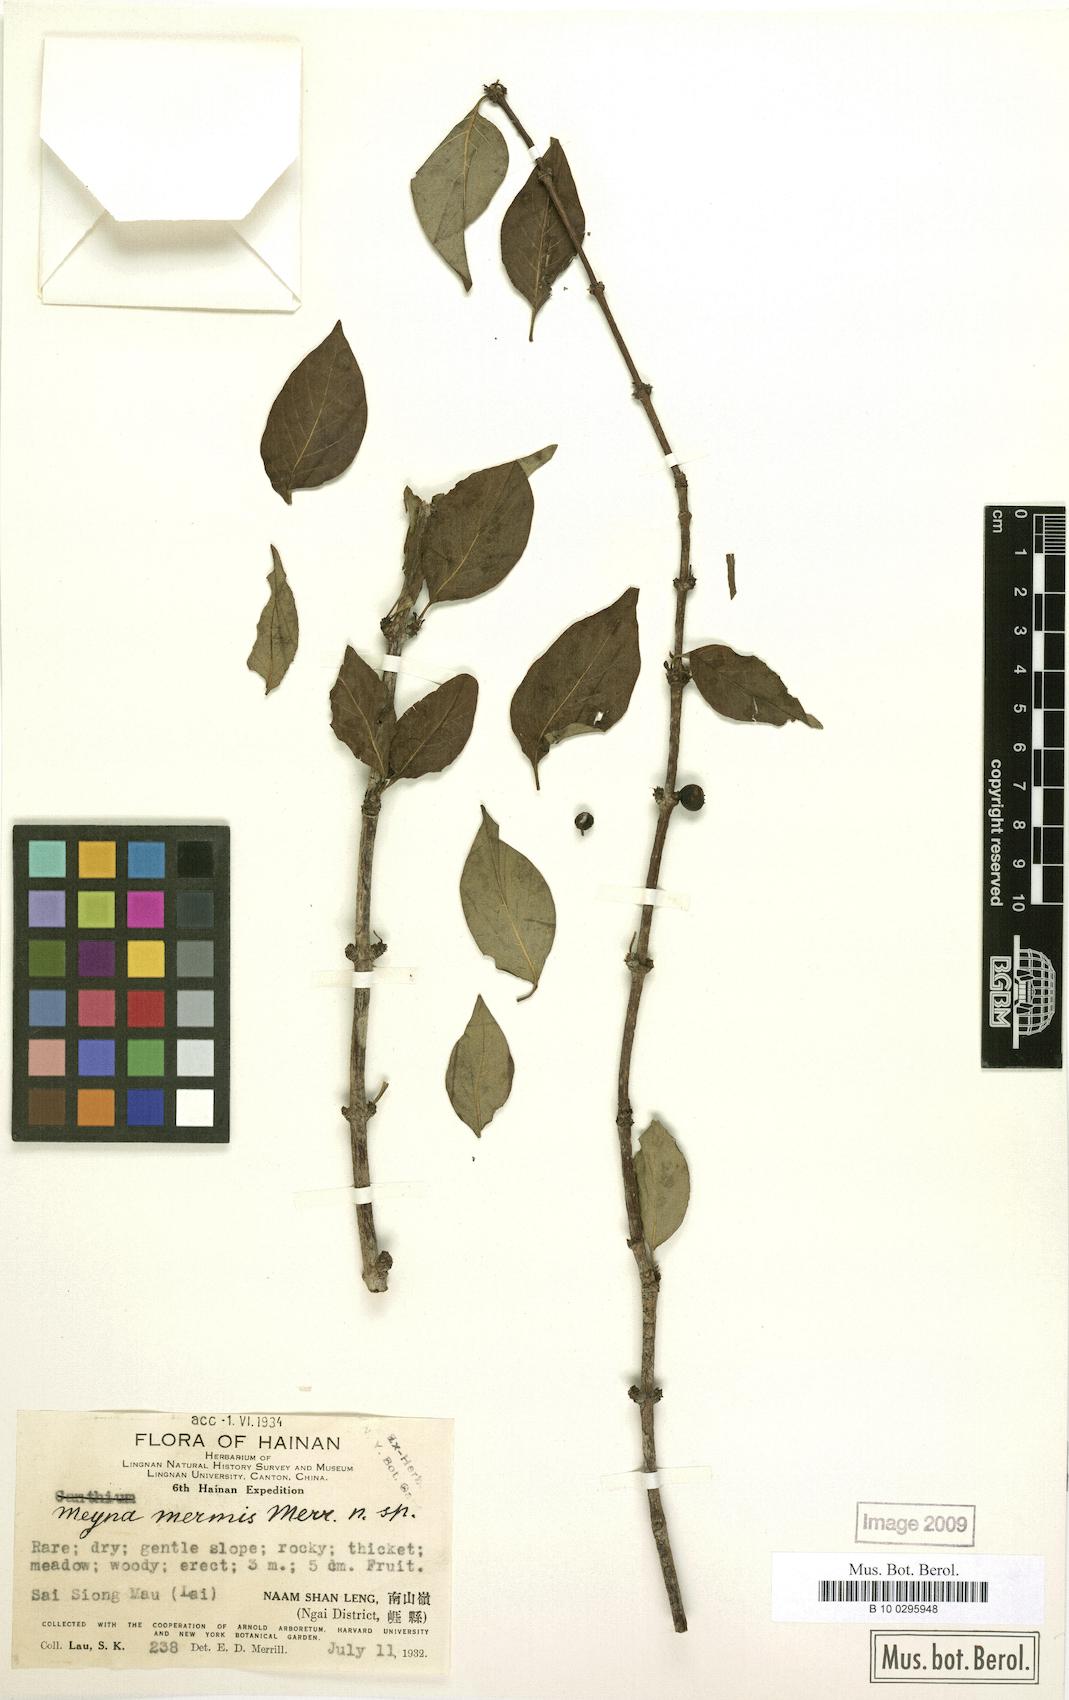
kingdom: Plantae
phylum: Tracheophyta
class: Magnoliopsida
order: Gentianales
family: Rubiaceae
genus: Meyna
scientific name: Meyna
